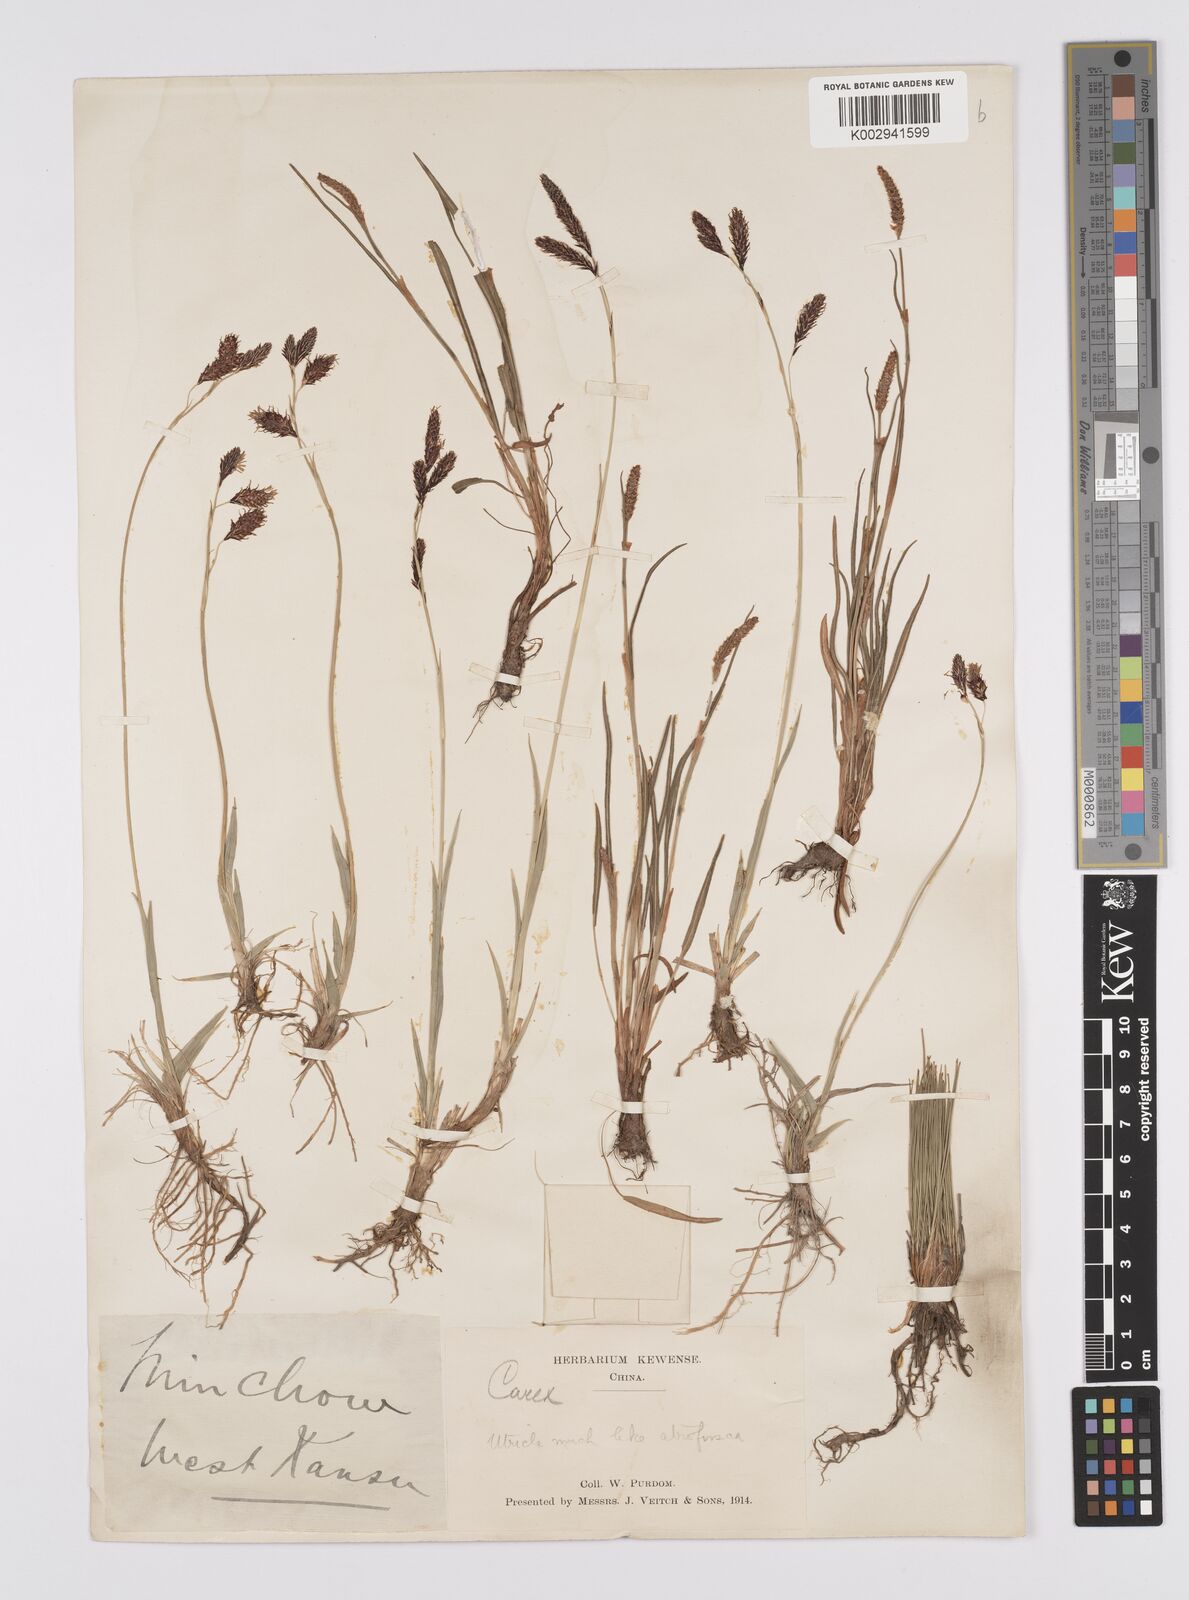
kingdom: Plantae
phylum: Tracheophyta
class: Liliopsida
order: Poales
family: Cyperaceae
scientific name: Cyperaceae
